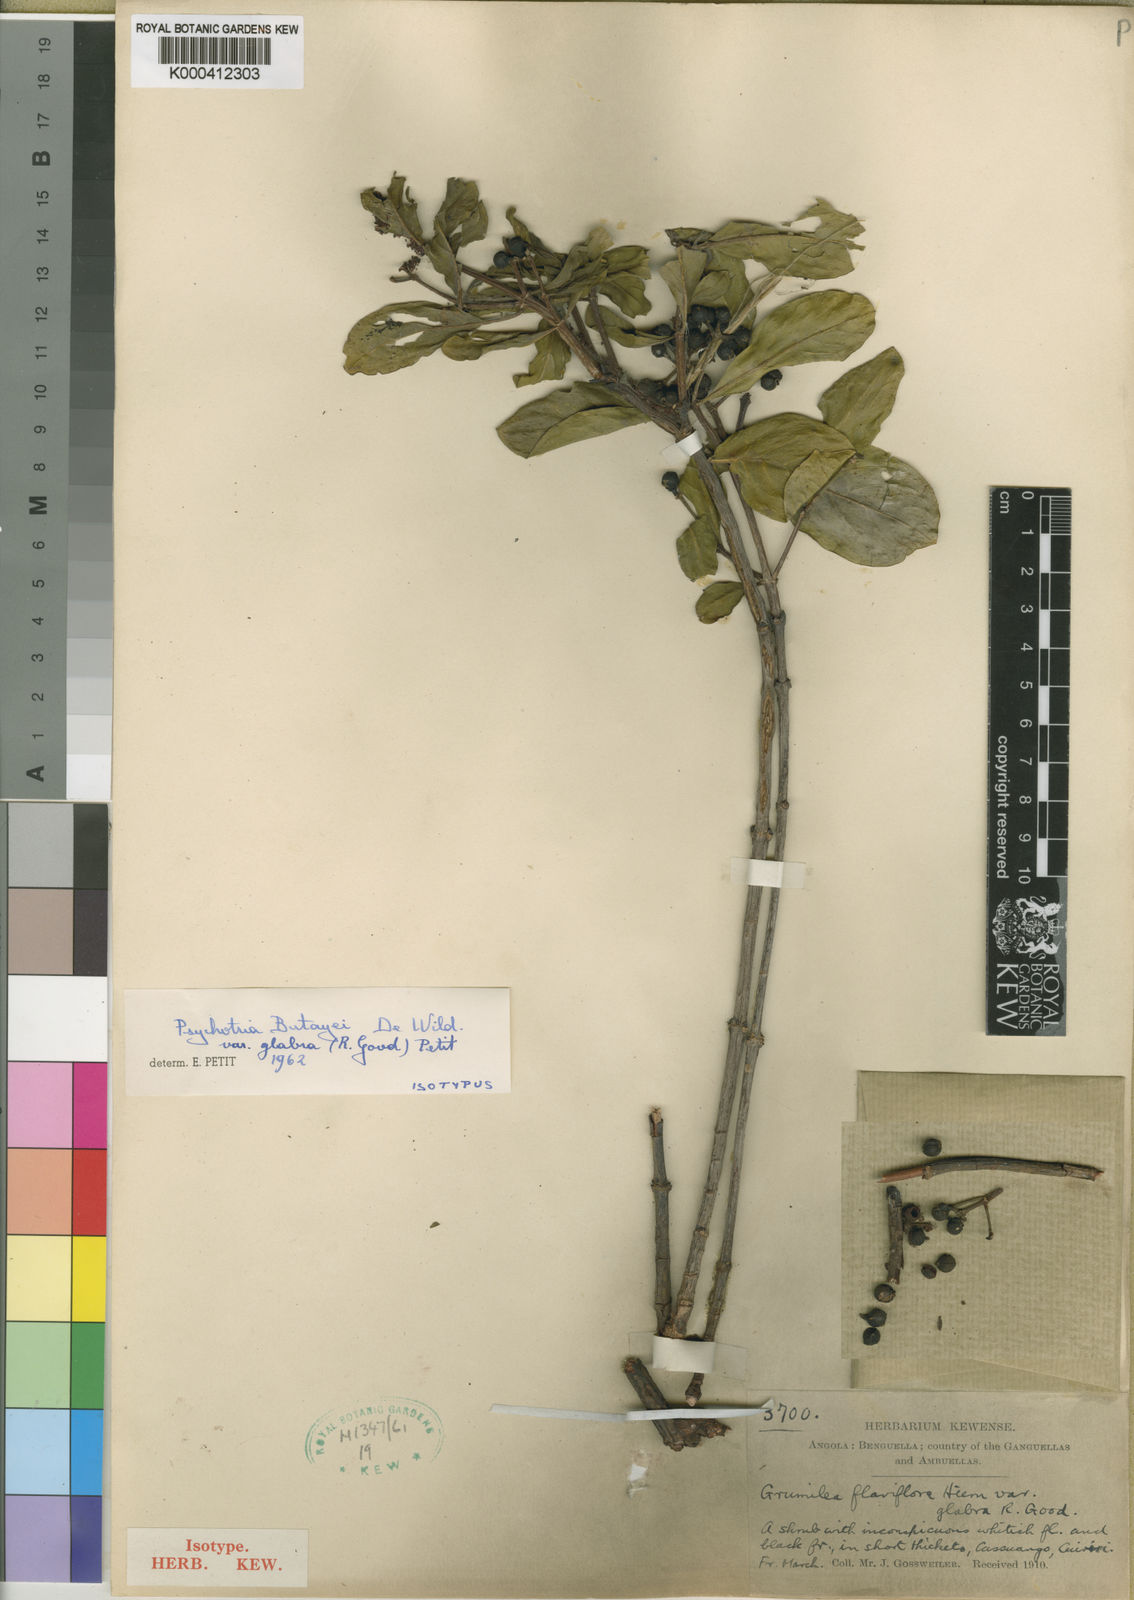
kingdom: Plantae
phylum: Tracheophyta
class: Magnoliopsida
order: Gentianales
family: Rubiaceae
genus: Psychotria
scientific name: Psychotria moninensis
